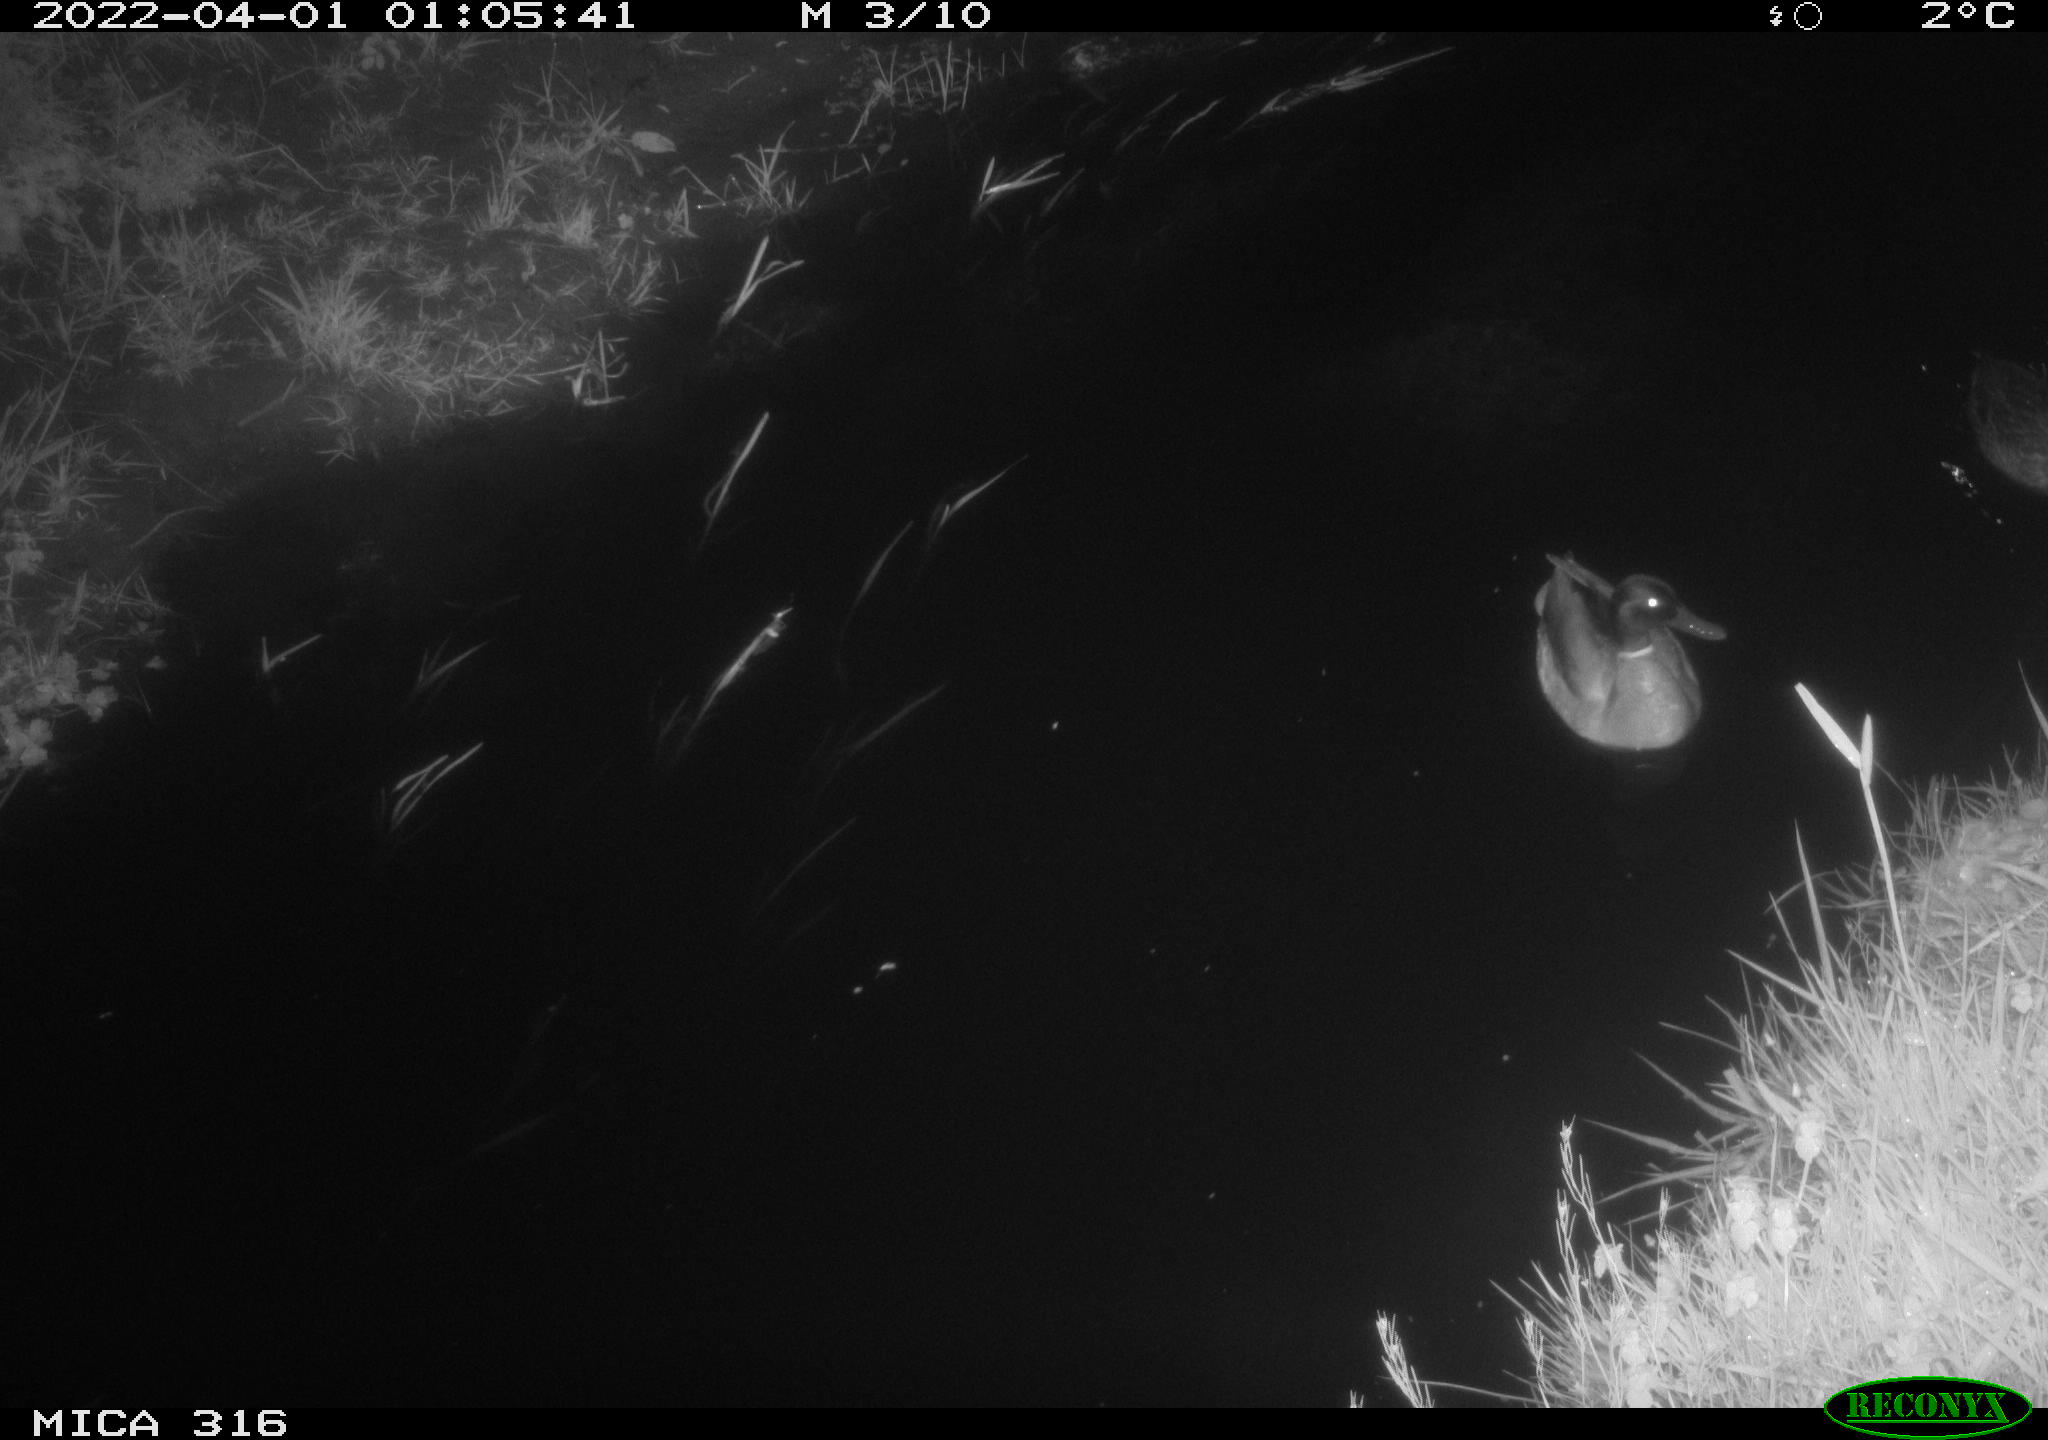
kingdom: Animalia
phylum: Chordata
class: Aves
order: Anseriformes
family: Anatidae
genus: Anas
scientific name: Anas platyrhynchos
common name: Mallard
